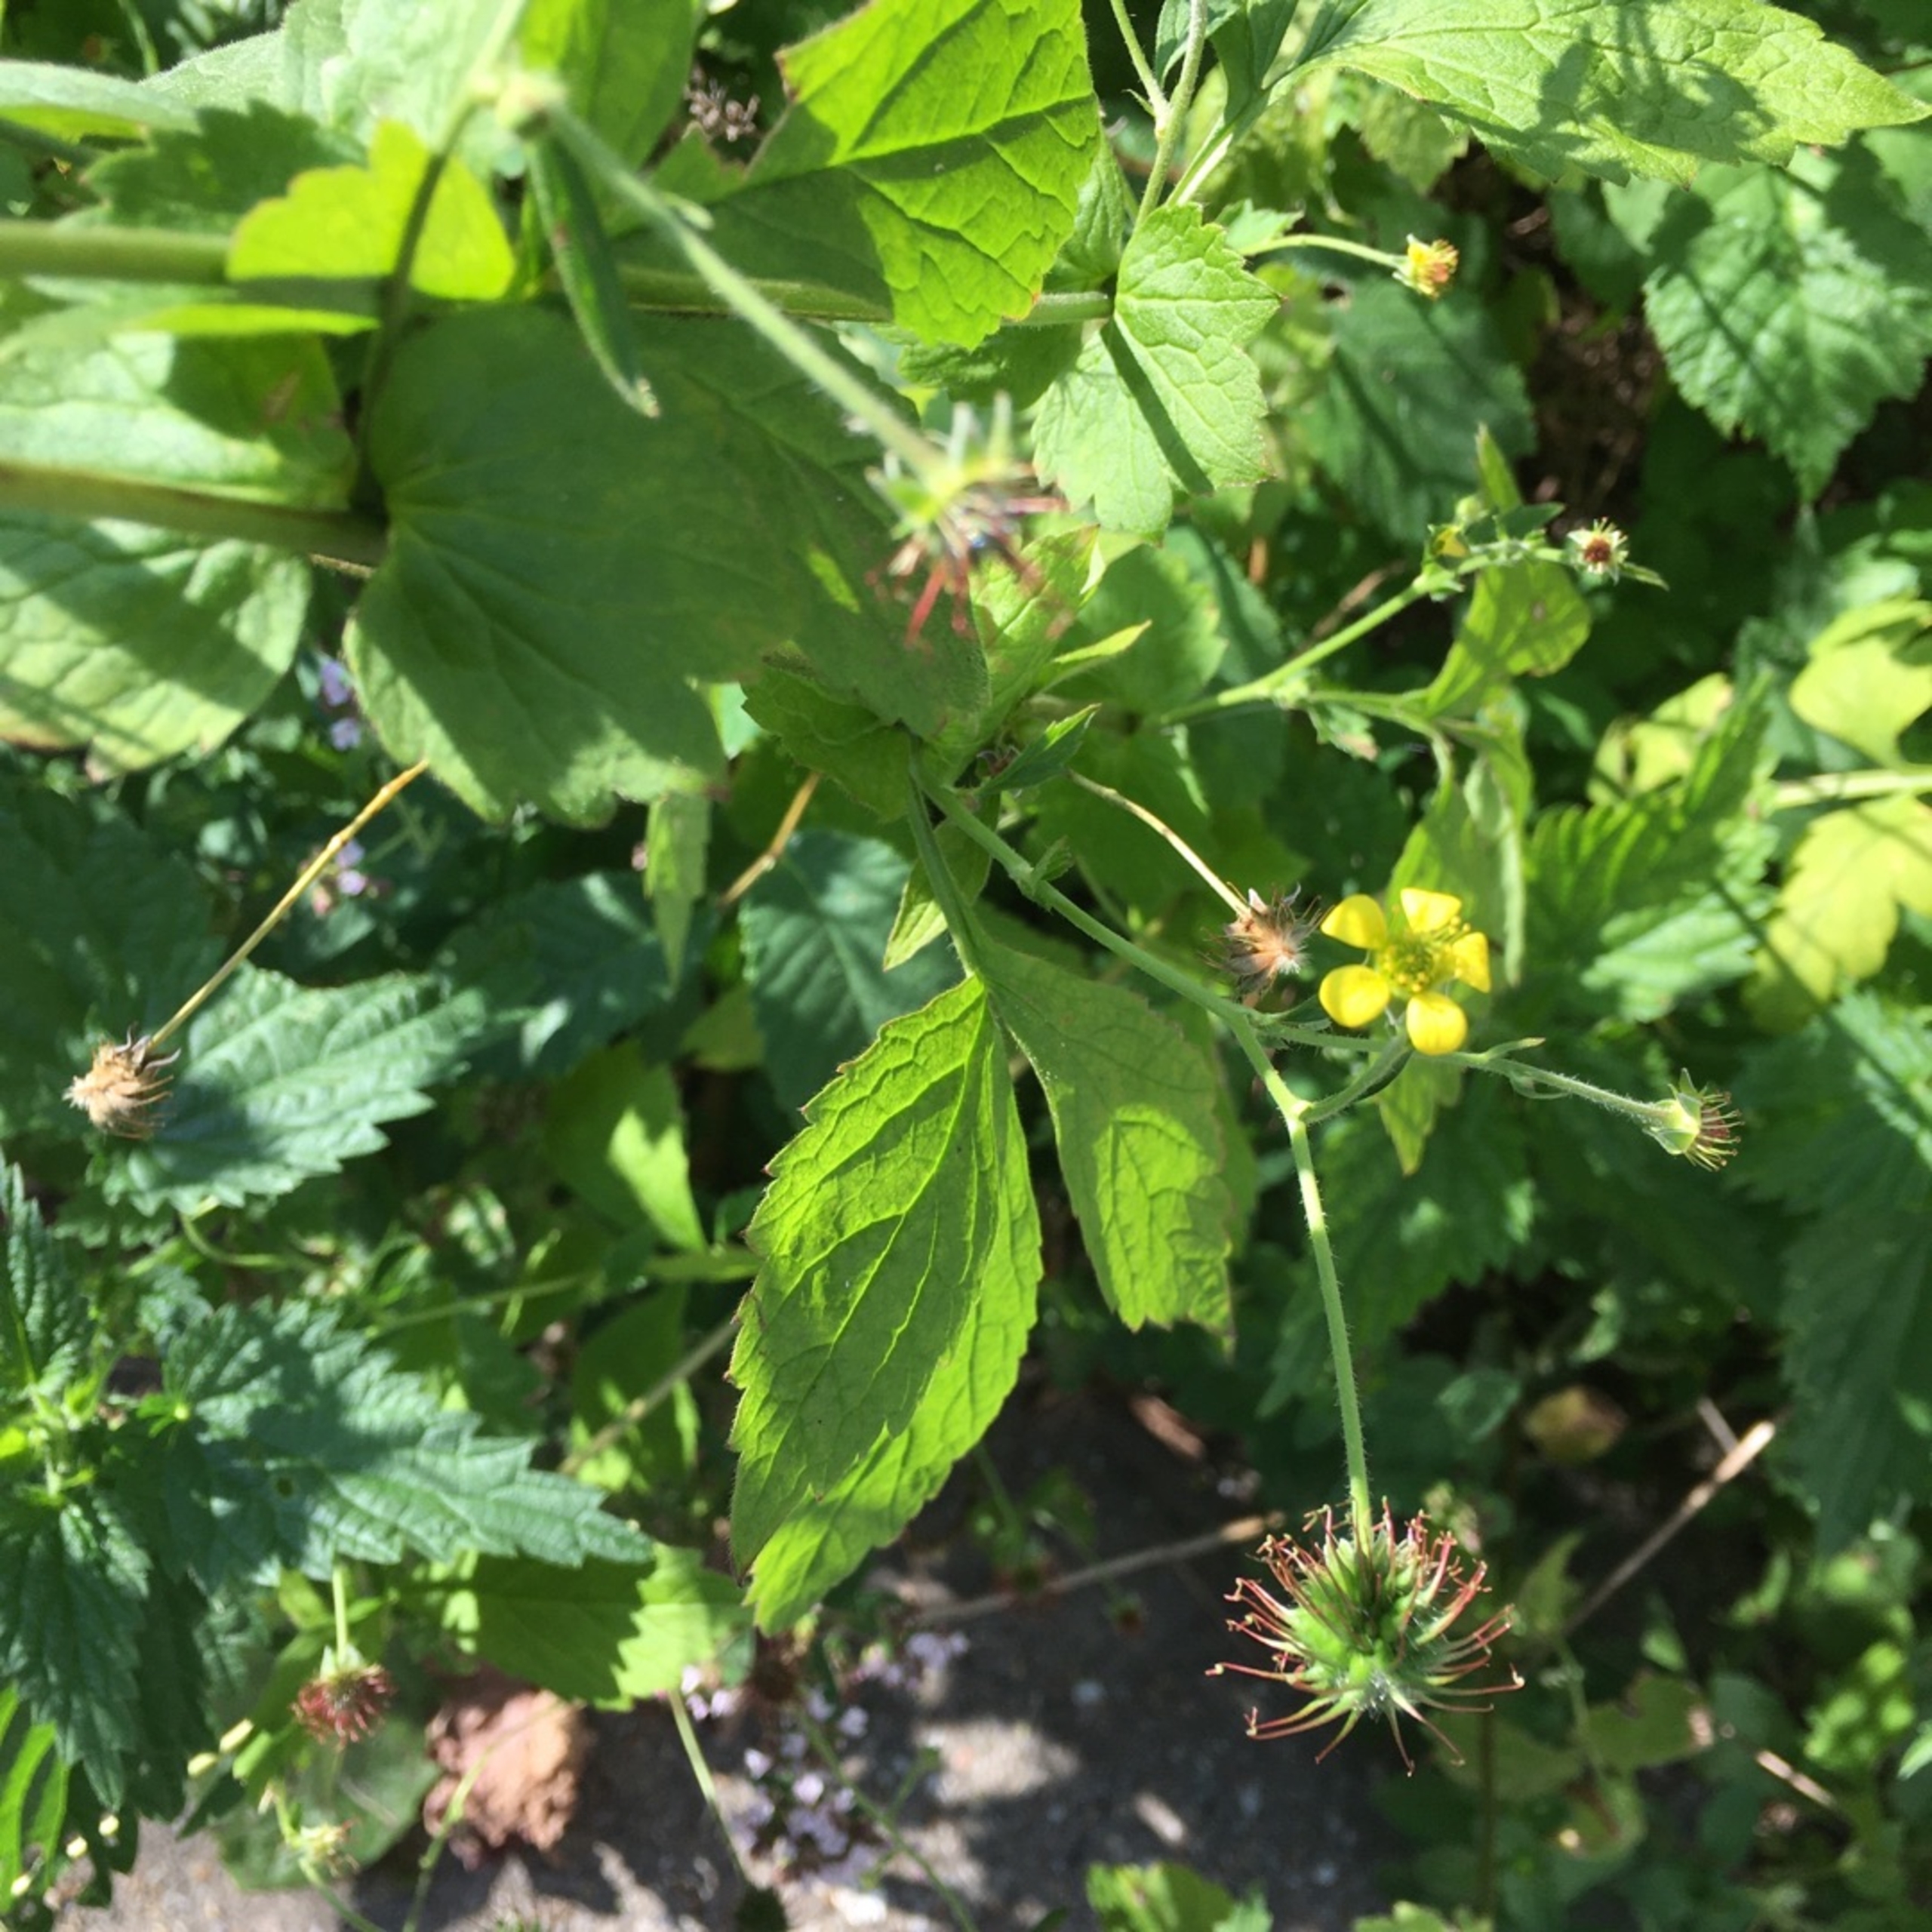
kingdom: Plantae
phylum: Tracheophyta
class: Magnoliopsida
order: Rosales
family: Rosaceae
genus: Geum
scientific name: Geum urbanum
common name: Feber-nellikerod
